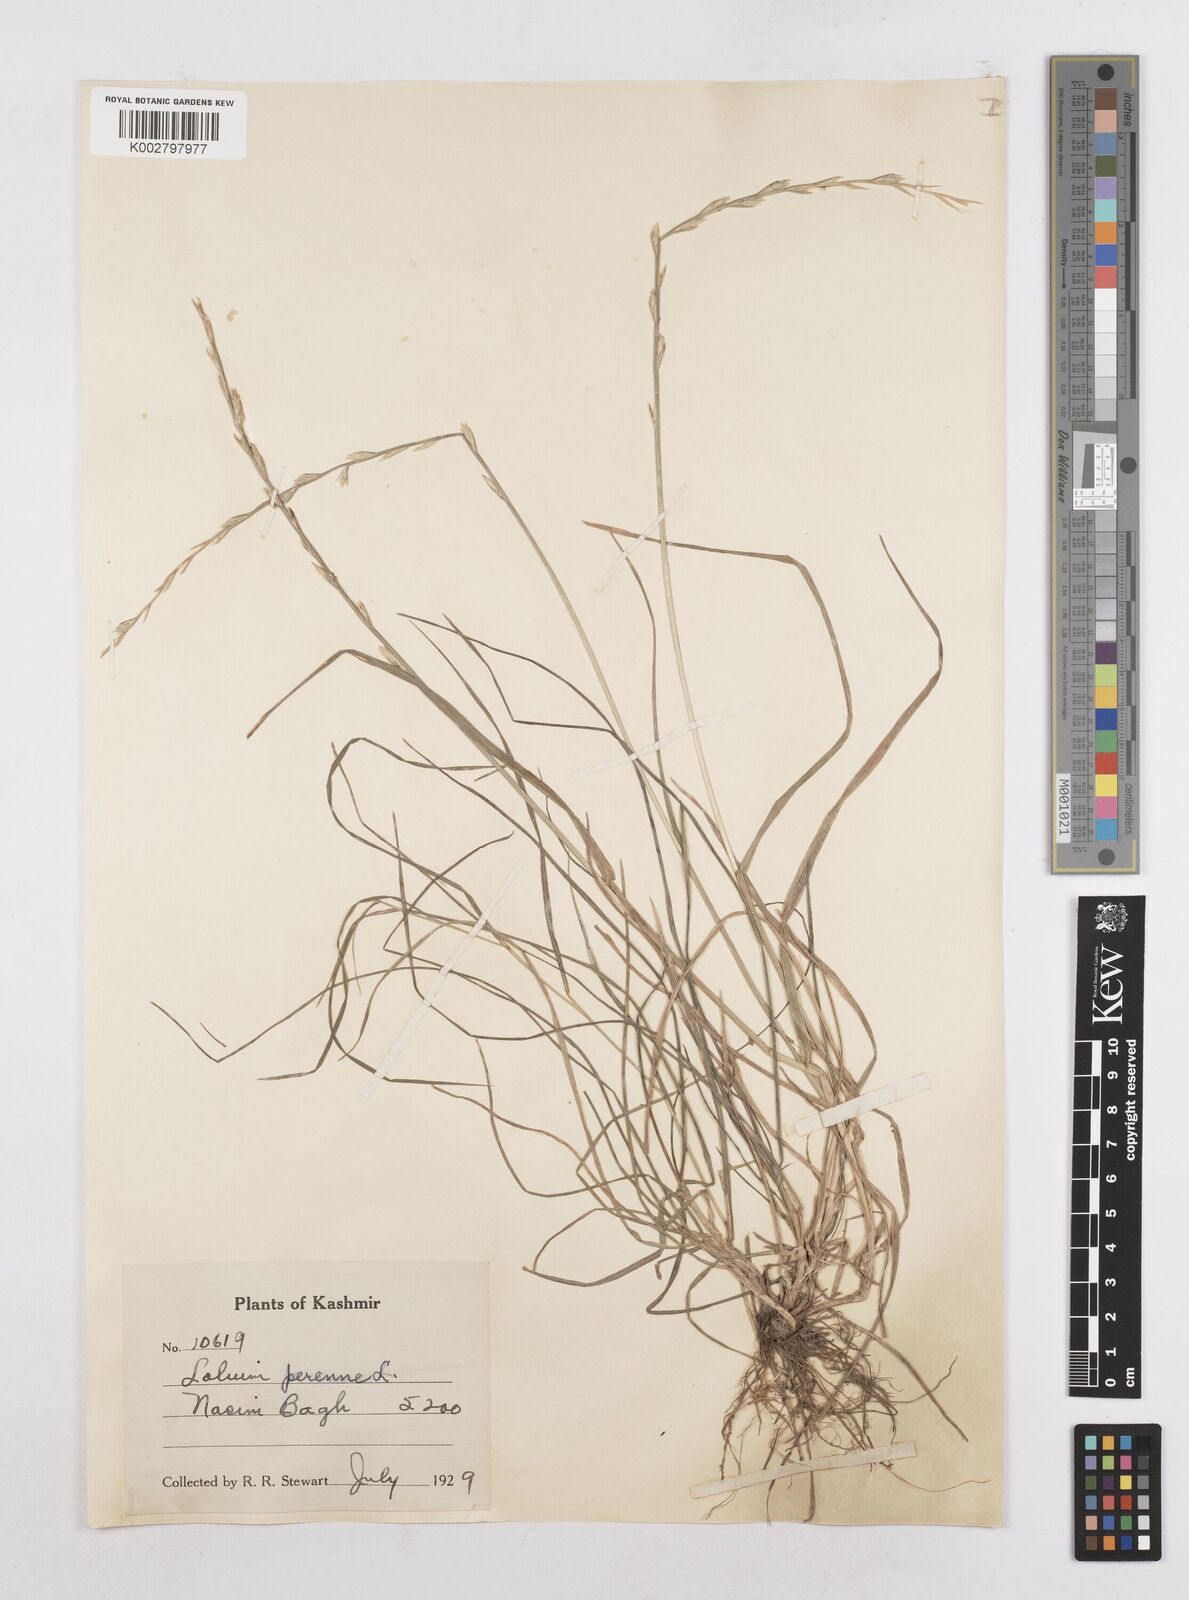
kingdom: Plantae
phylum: Tracheophyta
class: Liliopsida
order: Poales
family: Poaceae
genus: Lolium
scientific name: Lolium perenne
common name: Perennial ryegrass
